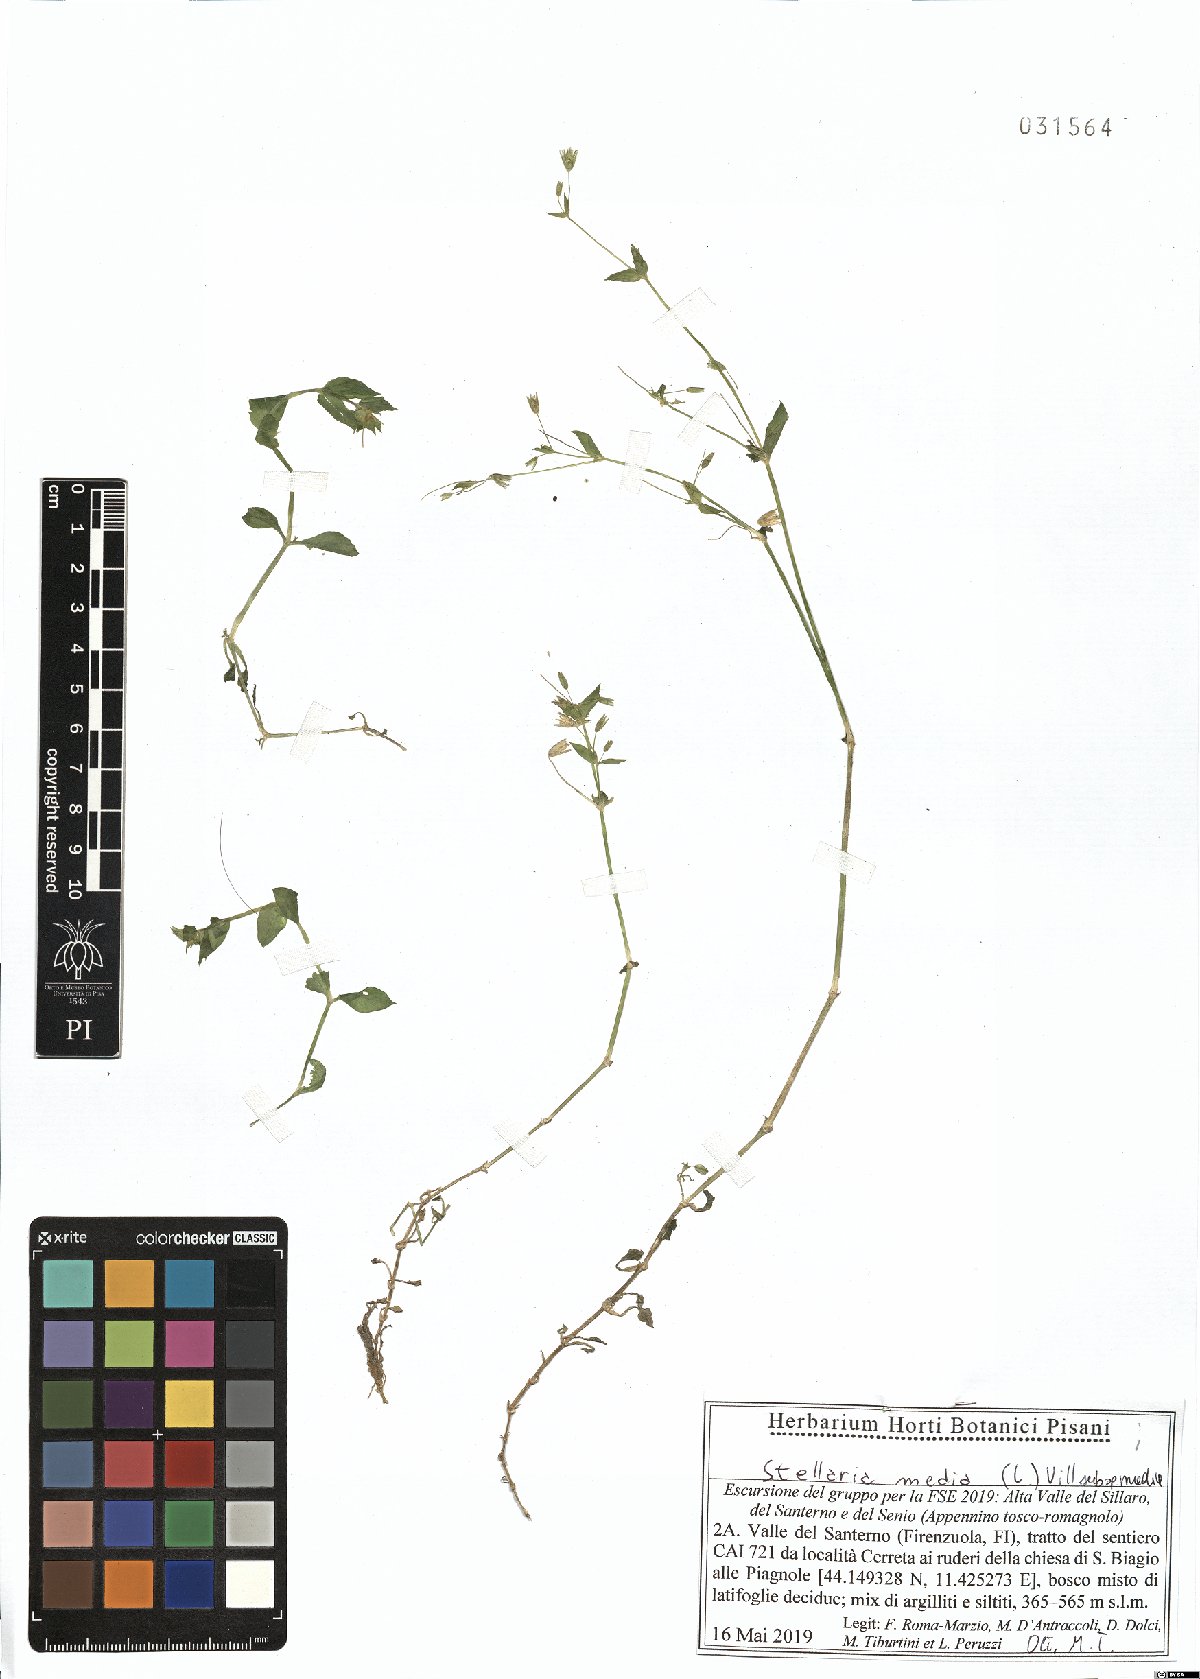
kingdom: Plantae
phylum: Tracheophyta
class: Magnoliopsida
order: Caryophyllales
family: Caryophyllaceae
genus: Stellaria
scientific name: Stellaria media
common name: Common chickweed
